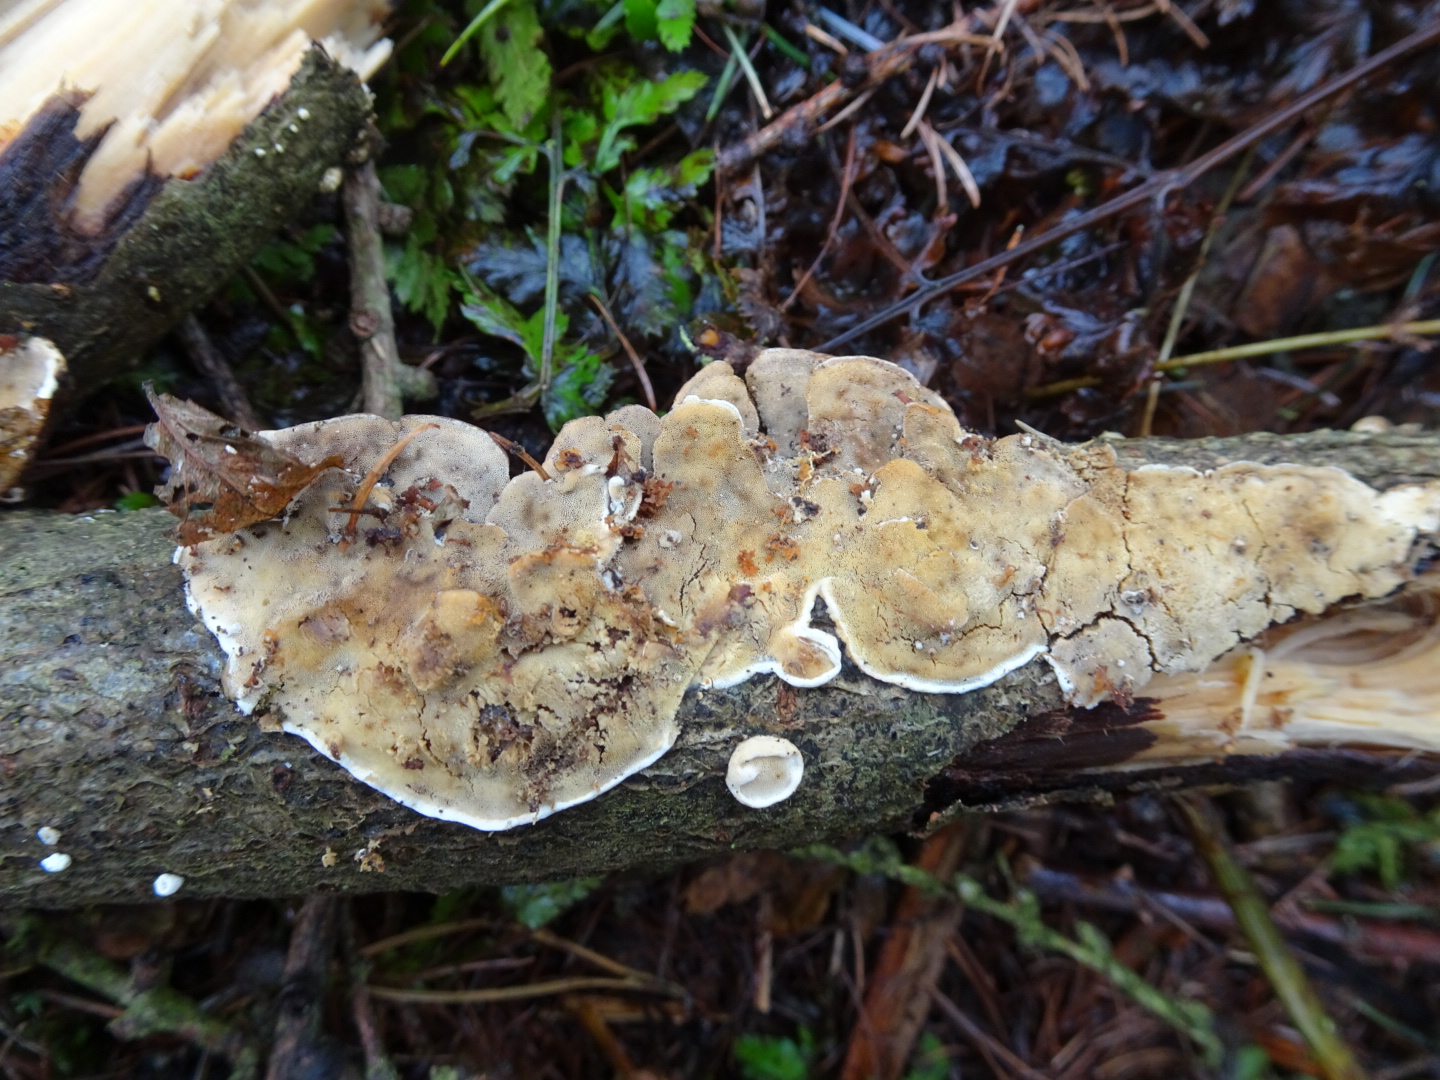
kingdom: Fungi
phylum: Basidiomycota
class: Agaricomycetes
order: Polyporales
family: Incrustoporiaceae
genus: Skeletocutis
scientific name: Skeletocutis nemoralis
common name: stor krystalporesvamp
